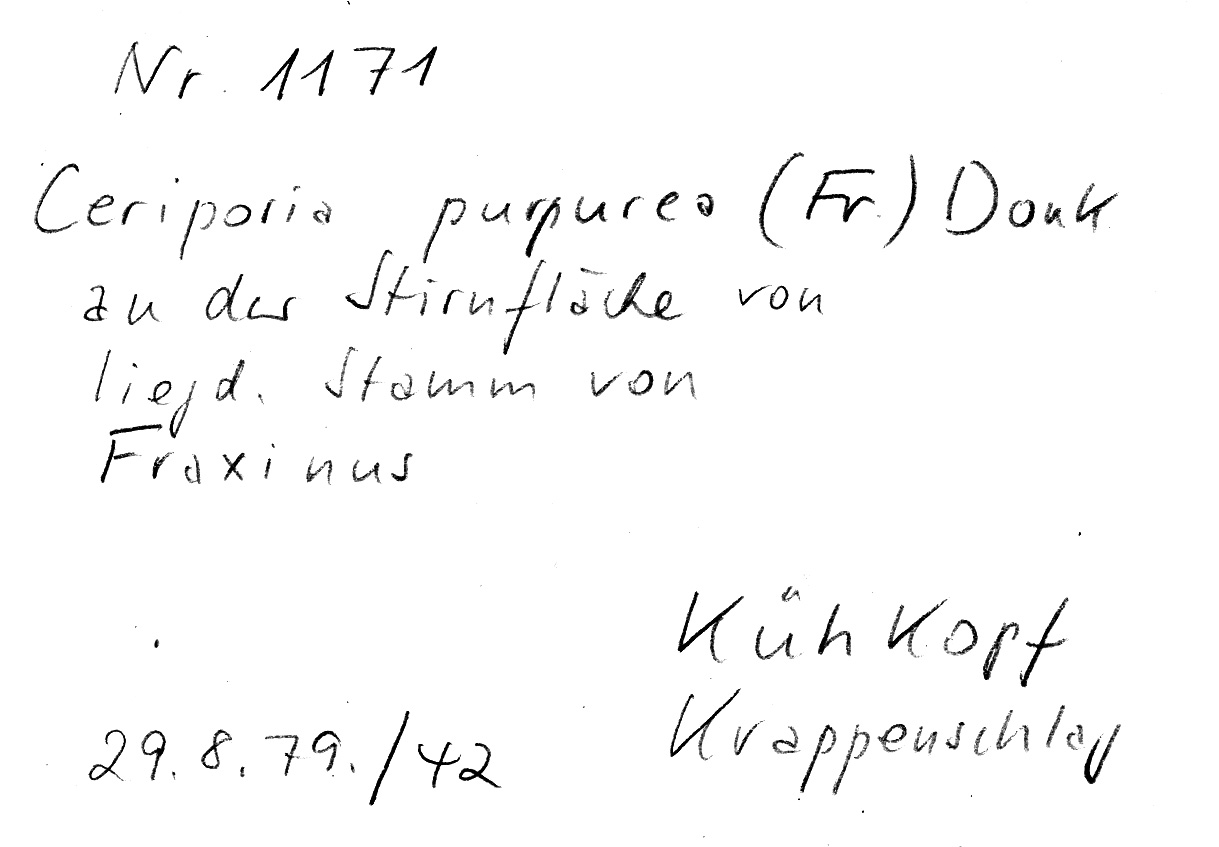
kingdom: Plantae
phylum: Tracheophyta
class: Magnoliopsida
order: Lamiales
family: Oleaceae
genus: Fraxinus
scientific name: Fraxinus
